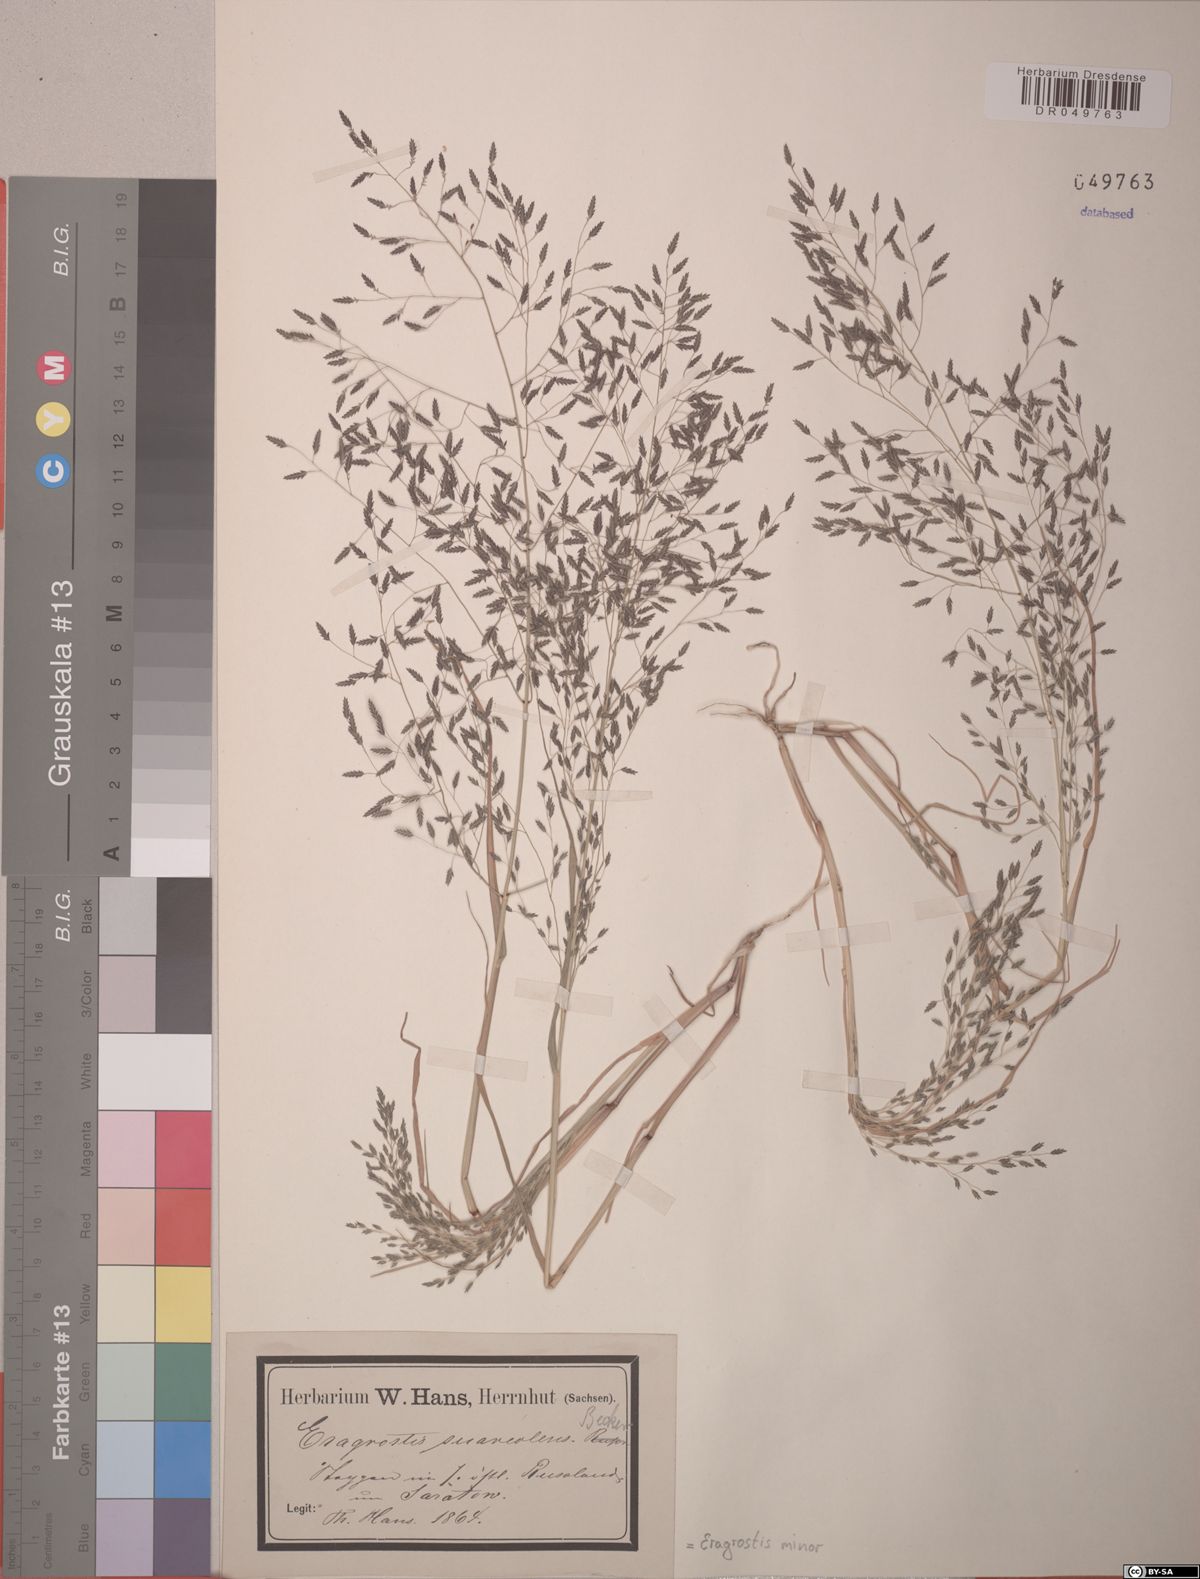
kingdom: Plantae
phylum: Tracheophyta
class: Liliopsida
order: Poales
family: Poaceae
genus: Eragrostis
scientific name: Eragrostis minor
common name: Small love-grass
